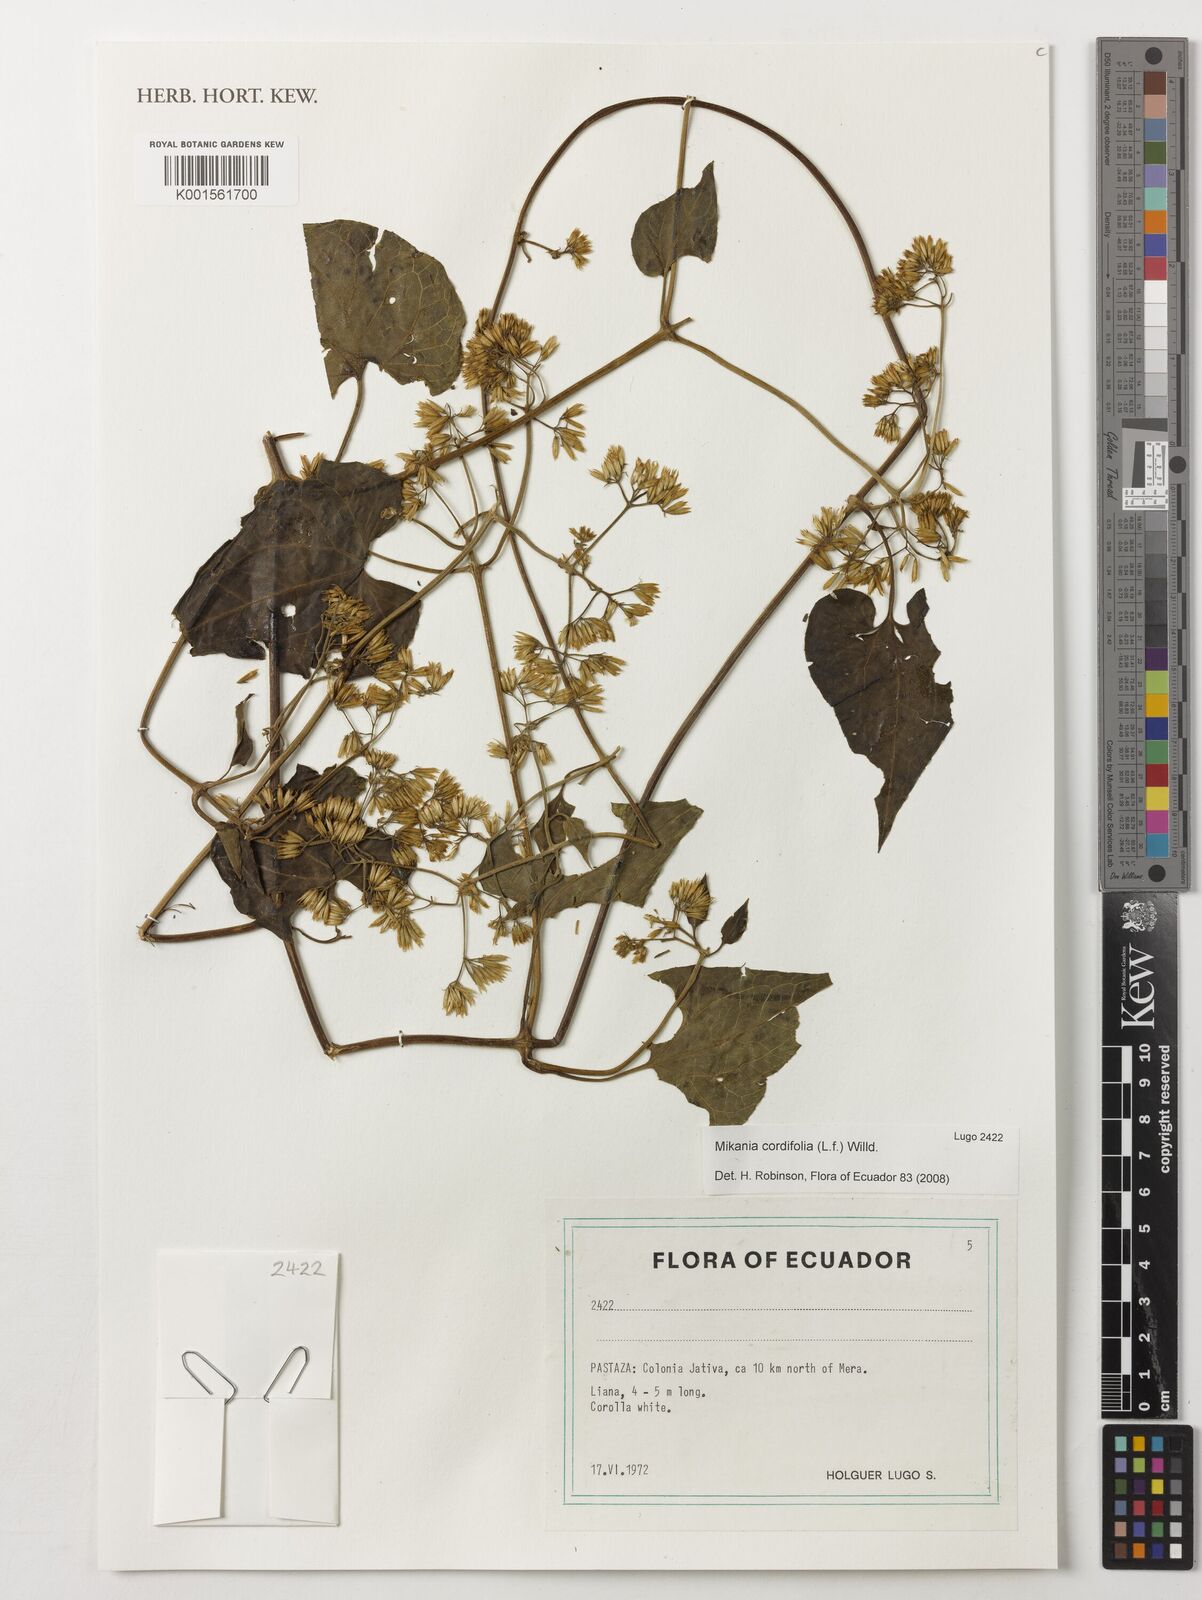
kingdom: Plantae
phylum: Tracheophyta
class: Magnoliopsida
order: Asterales
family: Asteraceae
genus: Mikania
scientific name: Mikania cordifolia
